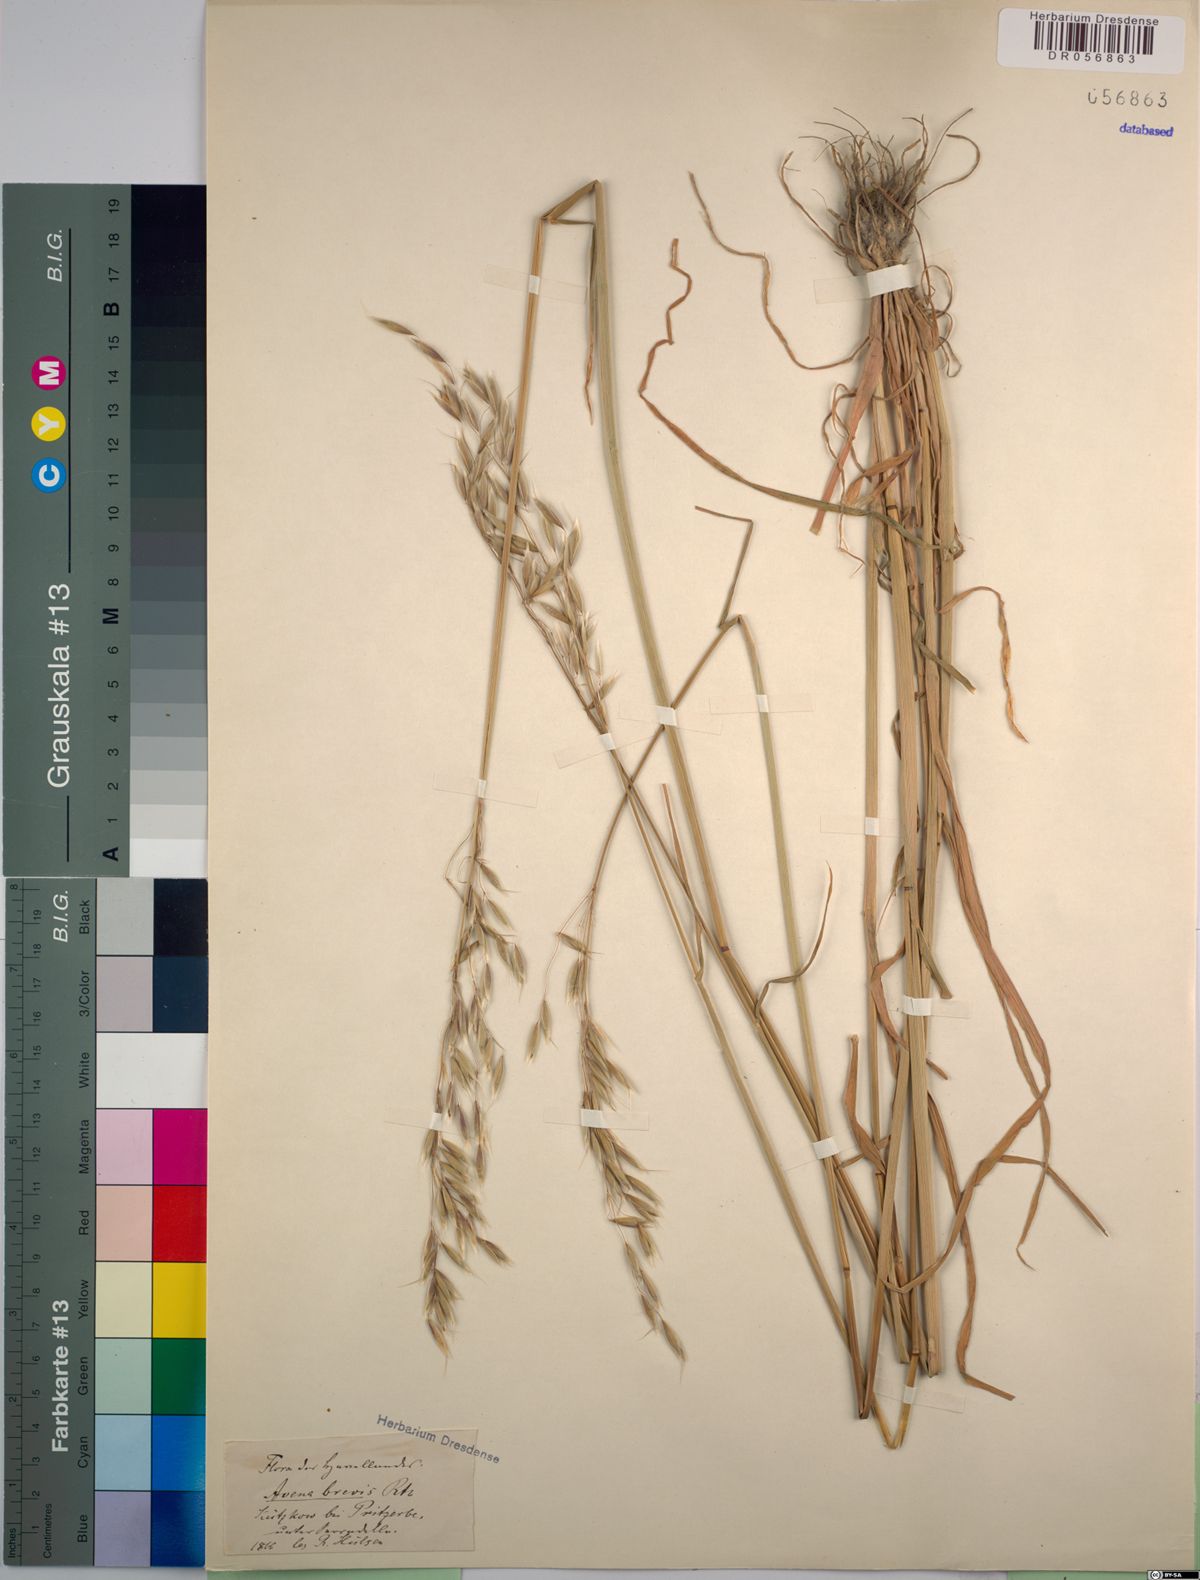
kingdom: Plantae
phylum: Tracheophyta
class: Liliopsida
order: Poales
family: Poaceae
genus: Avena
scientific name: Avena brevis
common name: Short oat
